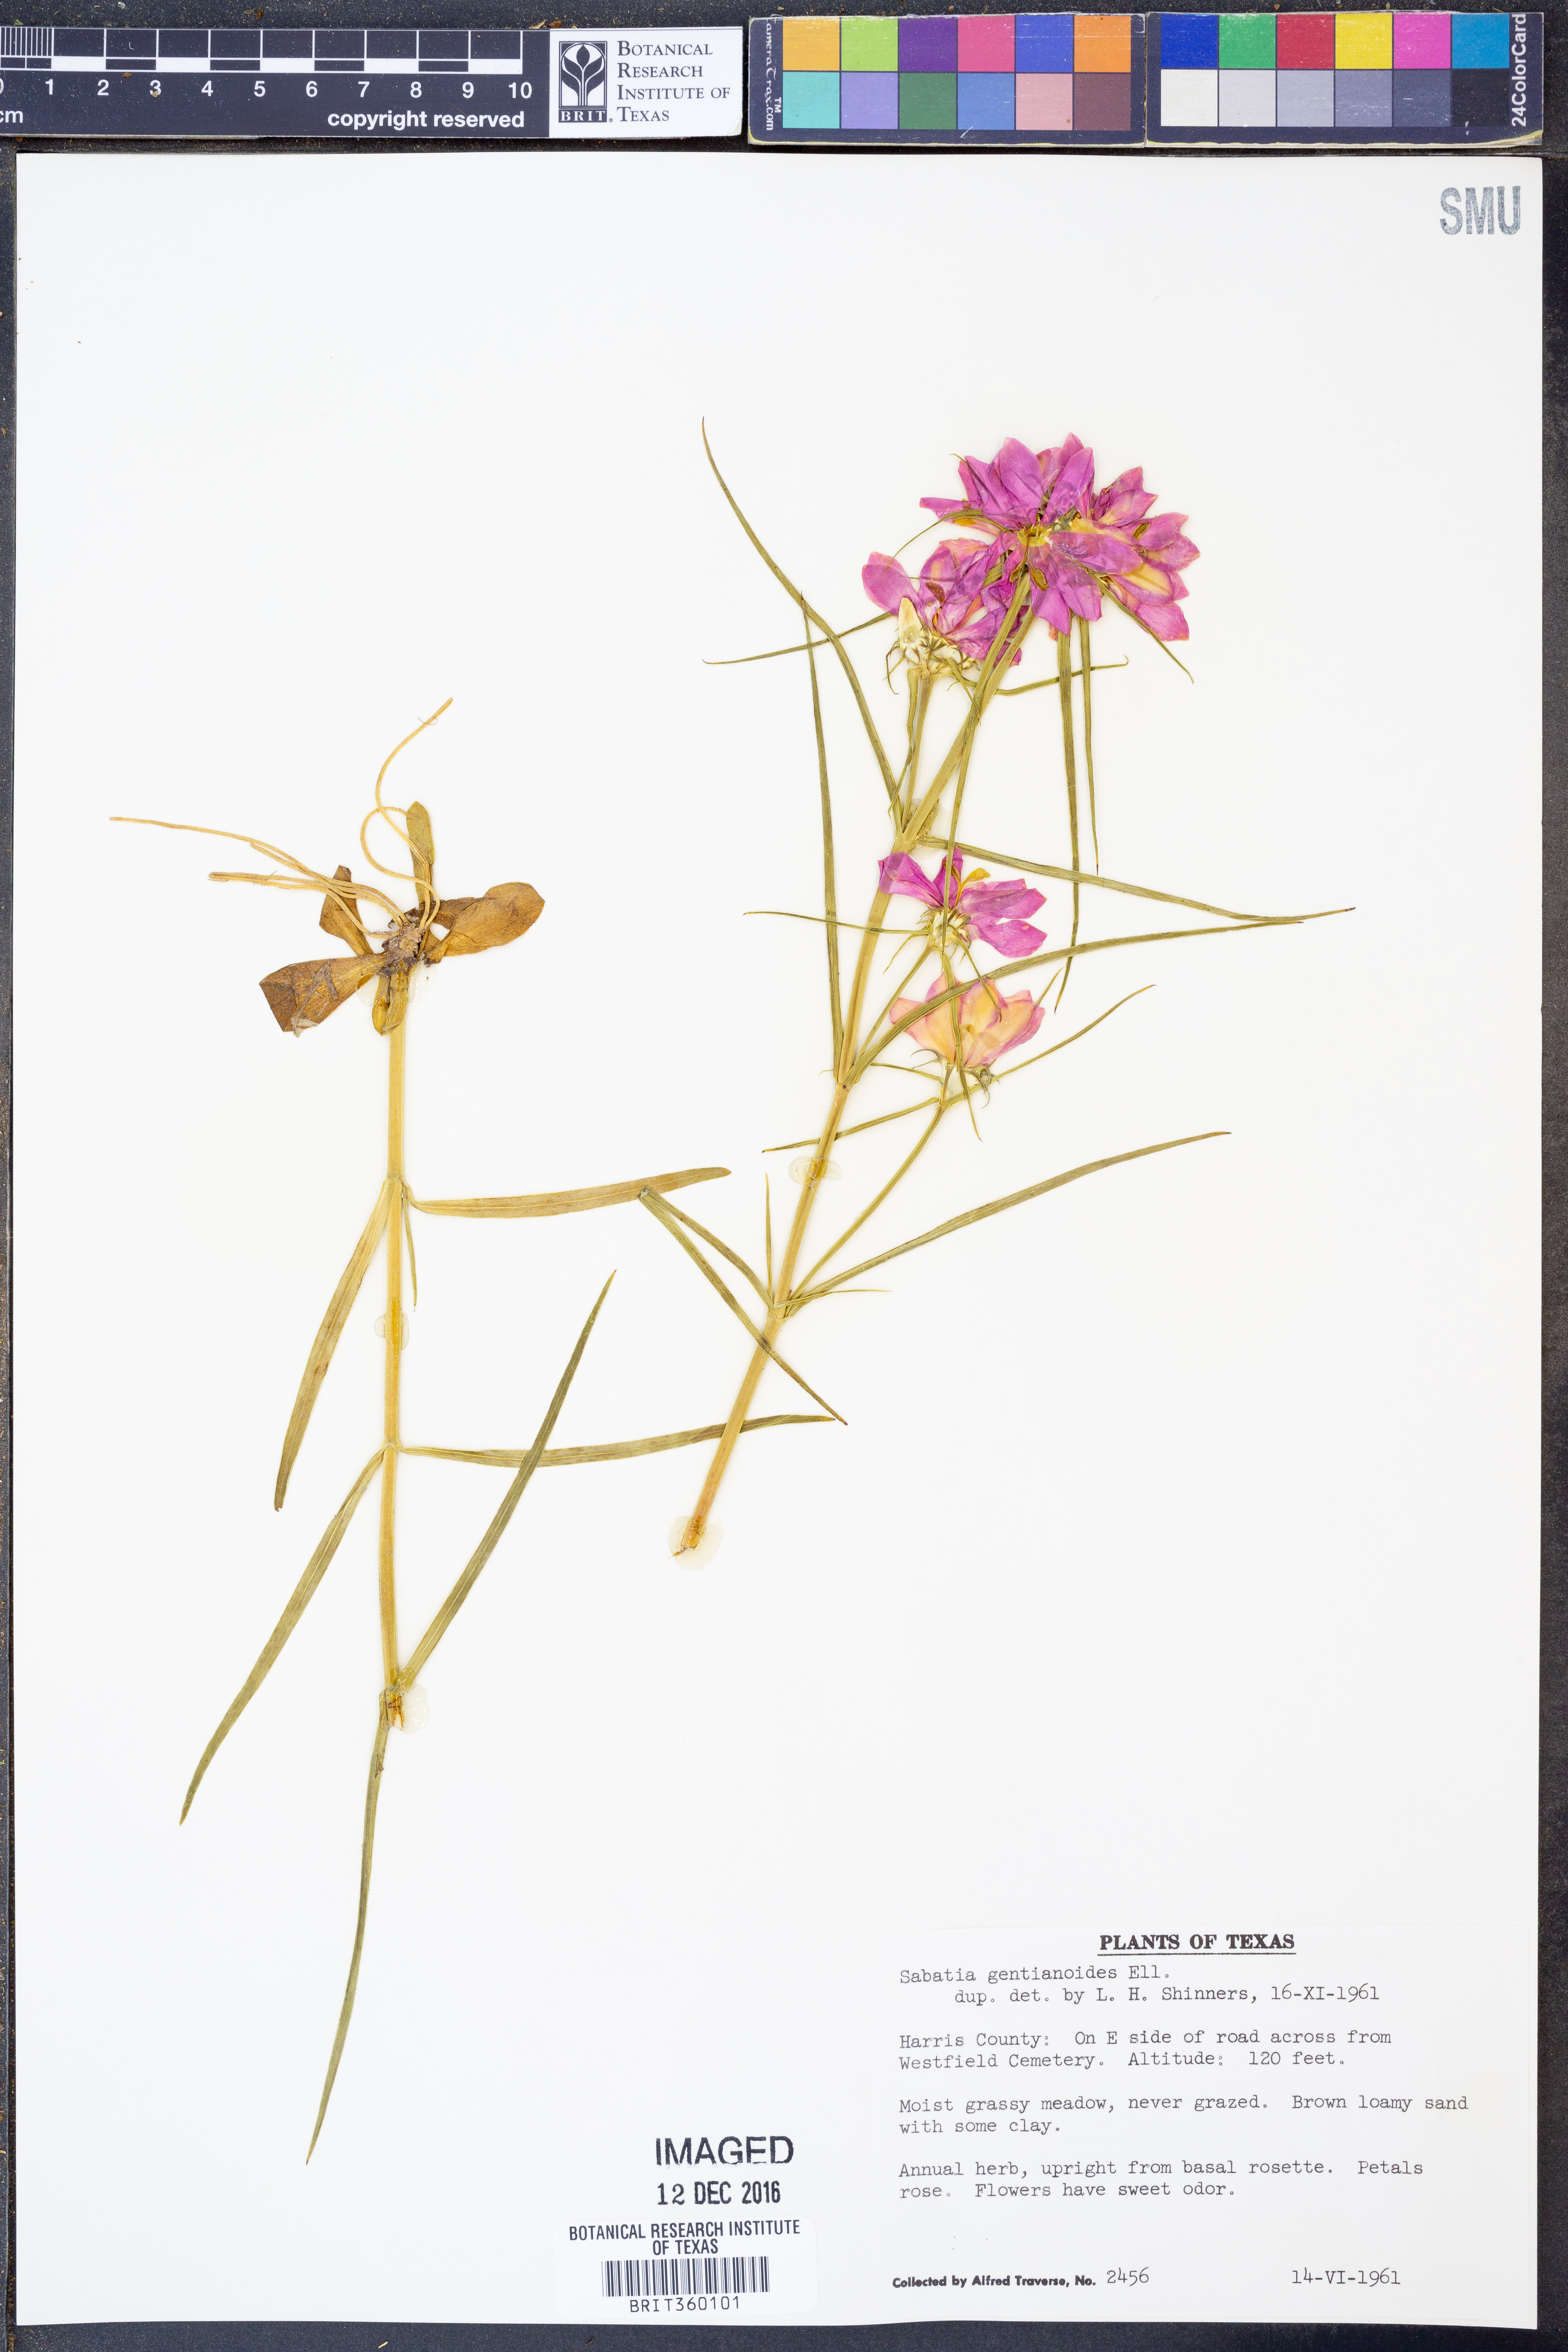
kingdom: Plantae
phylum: Tracheophyta
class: Magnoliopsida
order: Gentianales
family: Gentianaceae
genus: Sabatia
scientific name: Sabatia gentianoides
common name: Pinewoods rose-gentian
